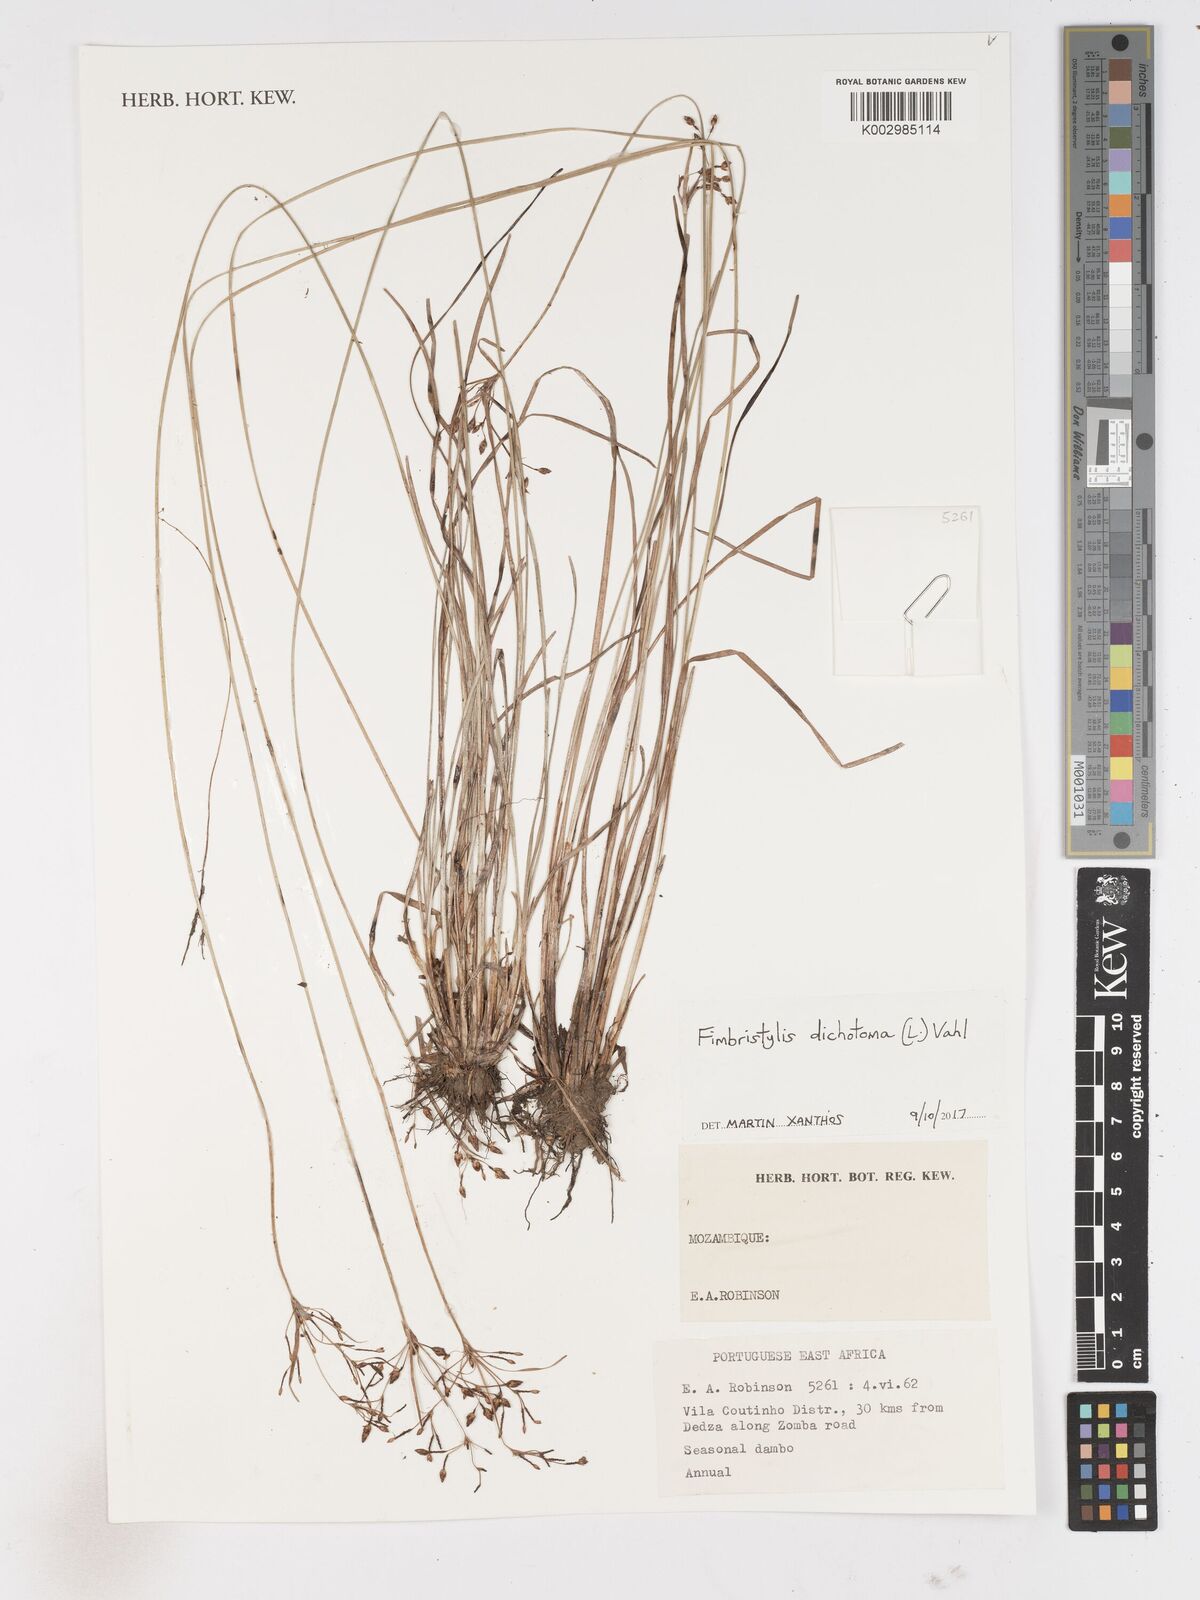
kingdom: Plantae
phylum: Tracheophyta
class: Liliopsida
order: Poales
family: Cyperaceae
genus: Fimbristylis
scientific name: Fimbristylis dichotoma
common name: Forked fimbry
